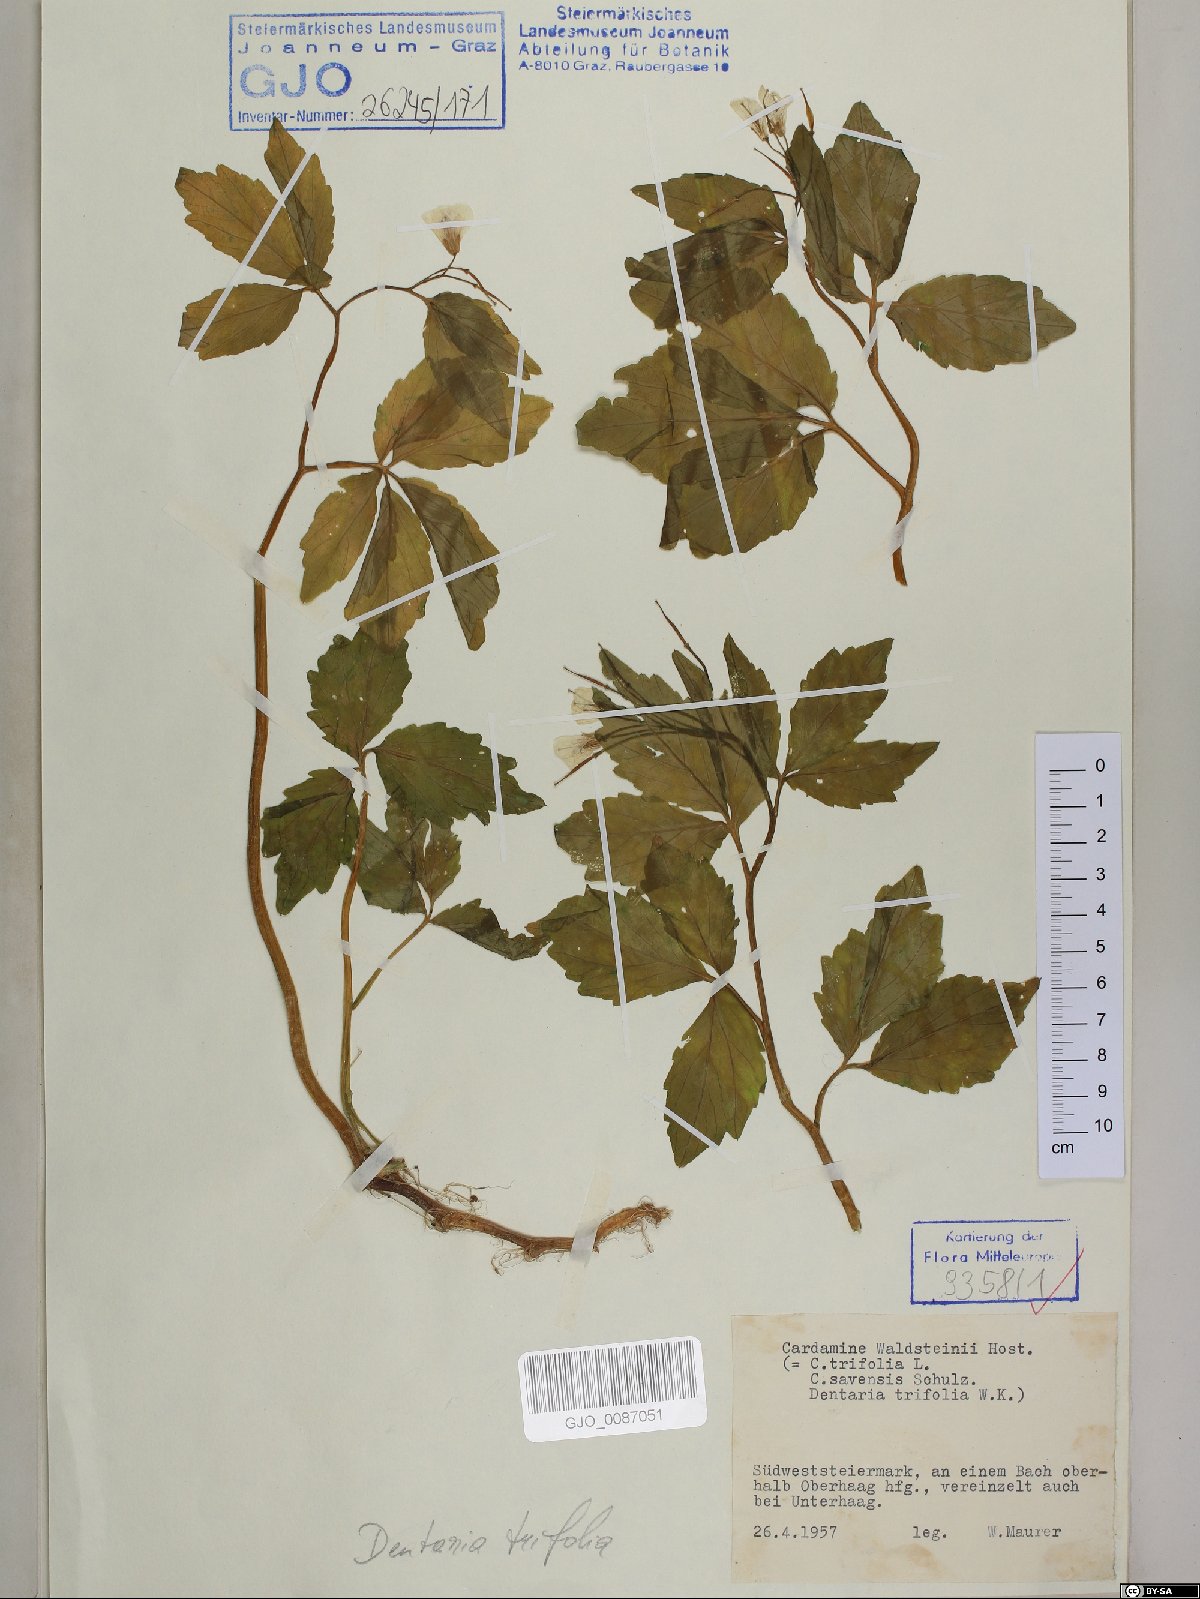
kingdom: Plantae
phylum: Tracheophyta
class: Magnoliopsida
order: Brassicales
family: Brassicaceae
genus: Cardamine
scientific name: Cardamine waldsteinii
